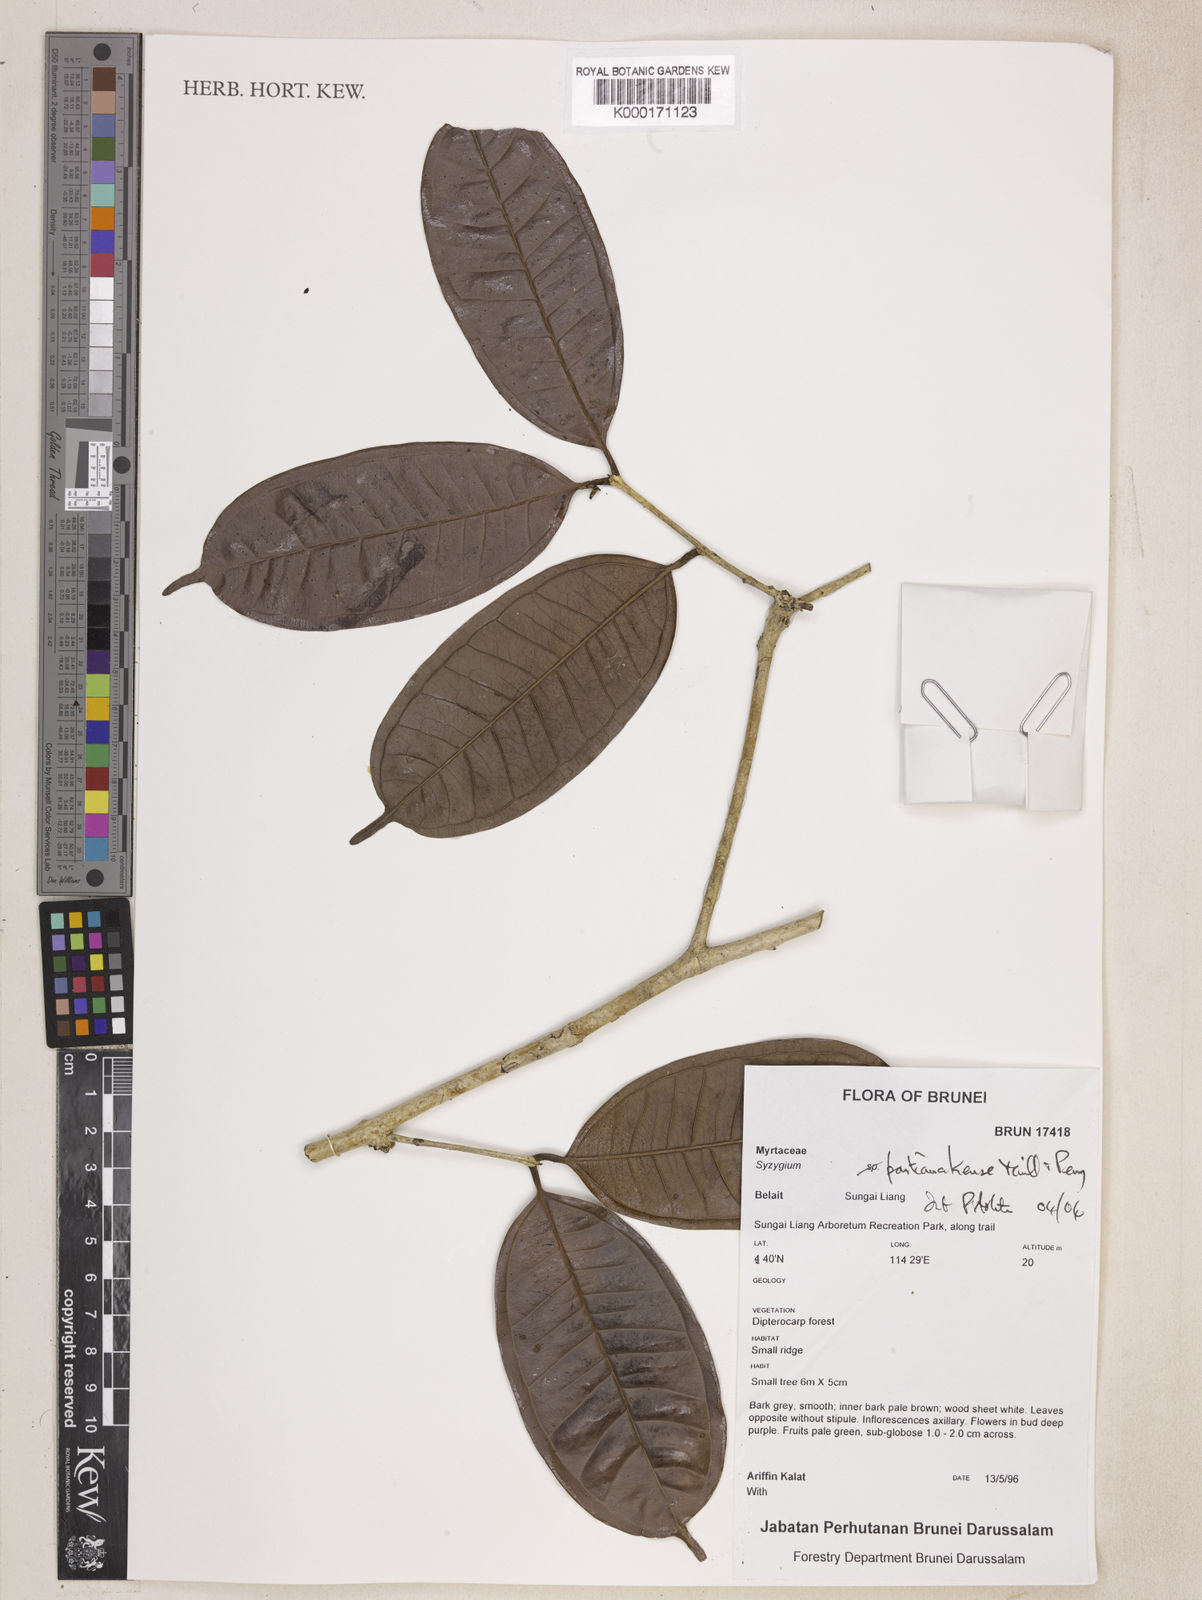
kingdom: Plantae
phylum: Tracheophyta
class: Magnoliopsida
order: Myrtales
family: Myrtaceae
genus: Syzygium
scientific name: Syzygium pontianakense
